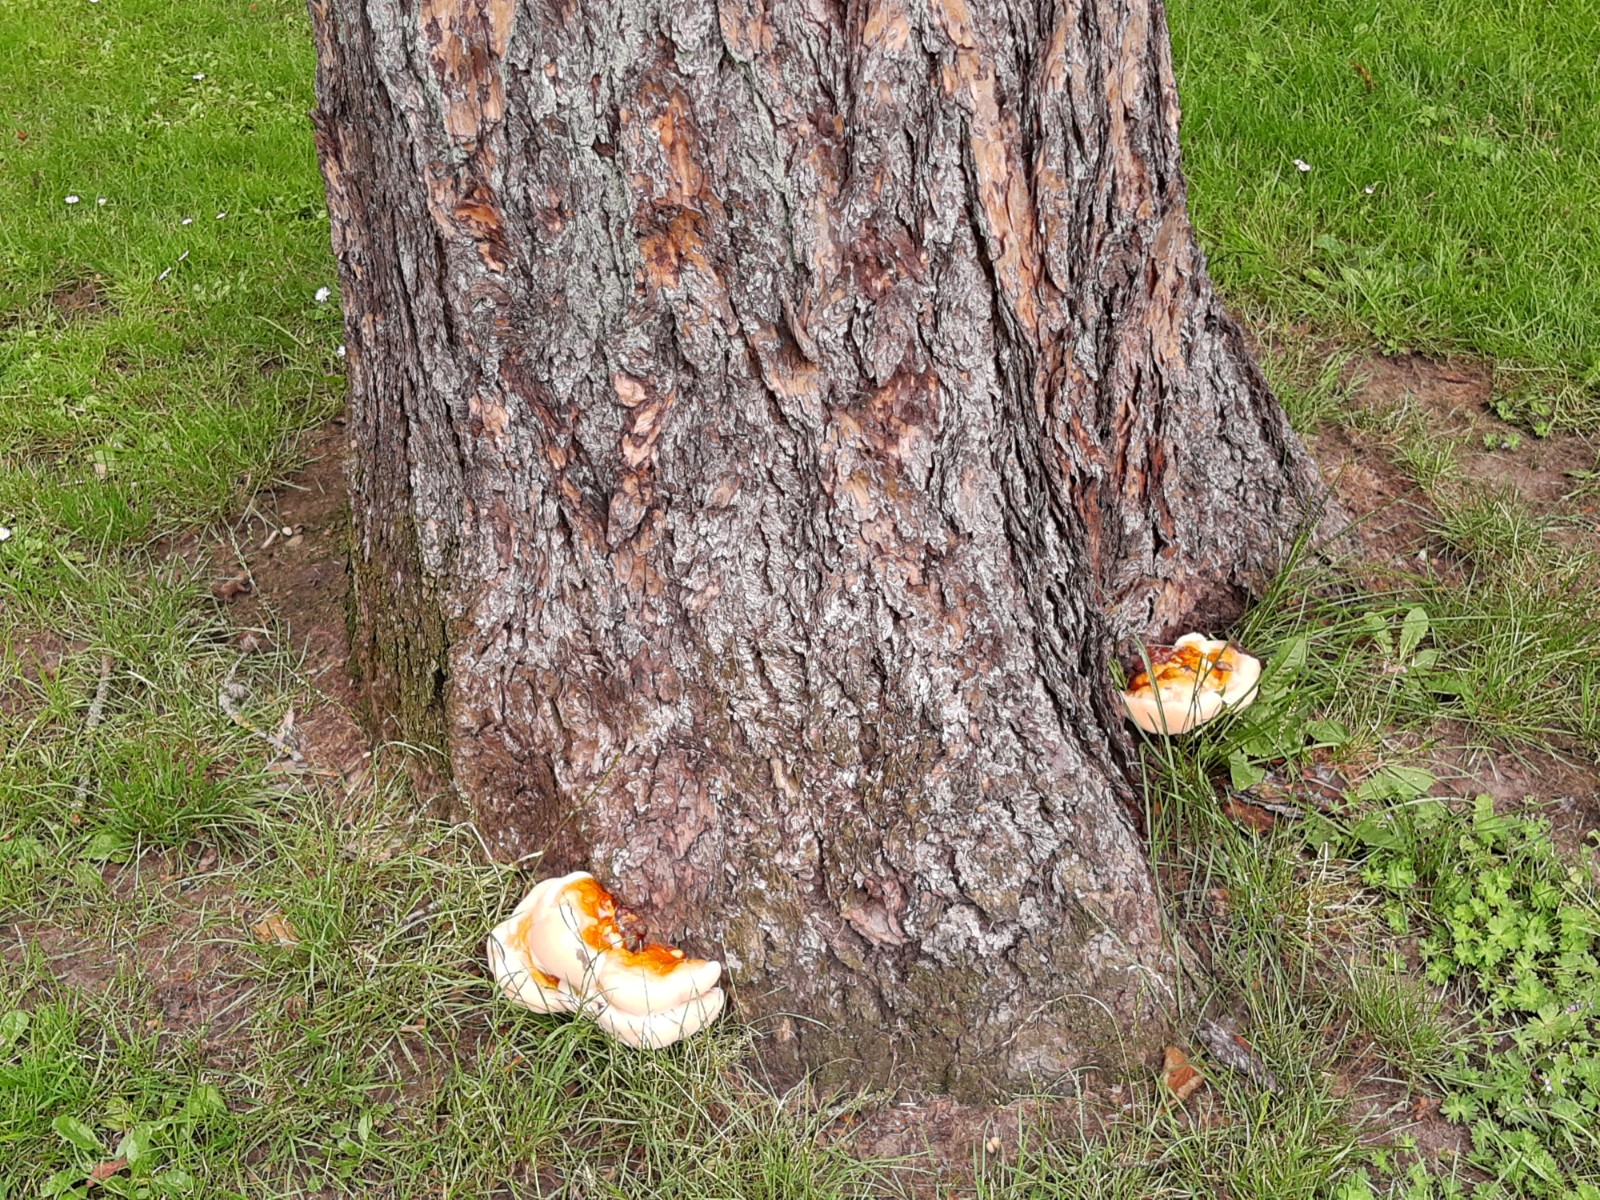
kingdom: Fungi
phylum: Basidiomycota
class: Agaricomycetes
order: Polyporales
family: Polyporaceae
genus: Ganoderma
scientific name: Ganoderma lucidum
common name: skinnende lakporesvamp
